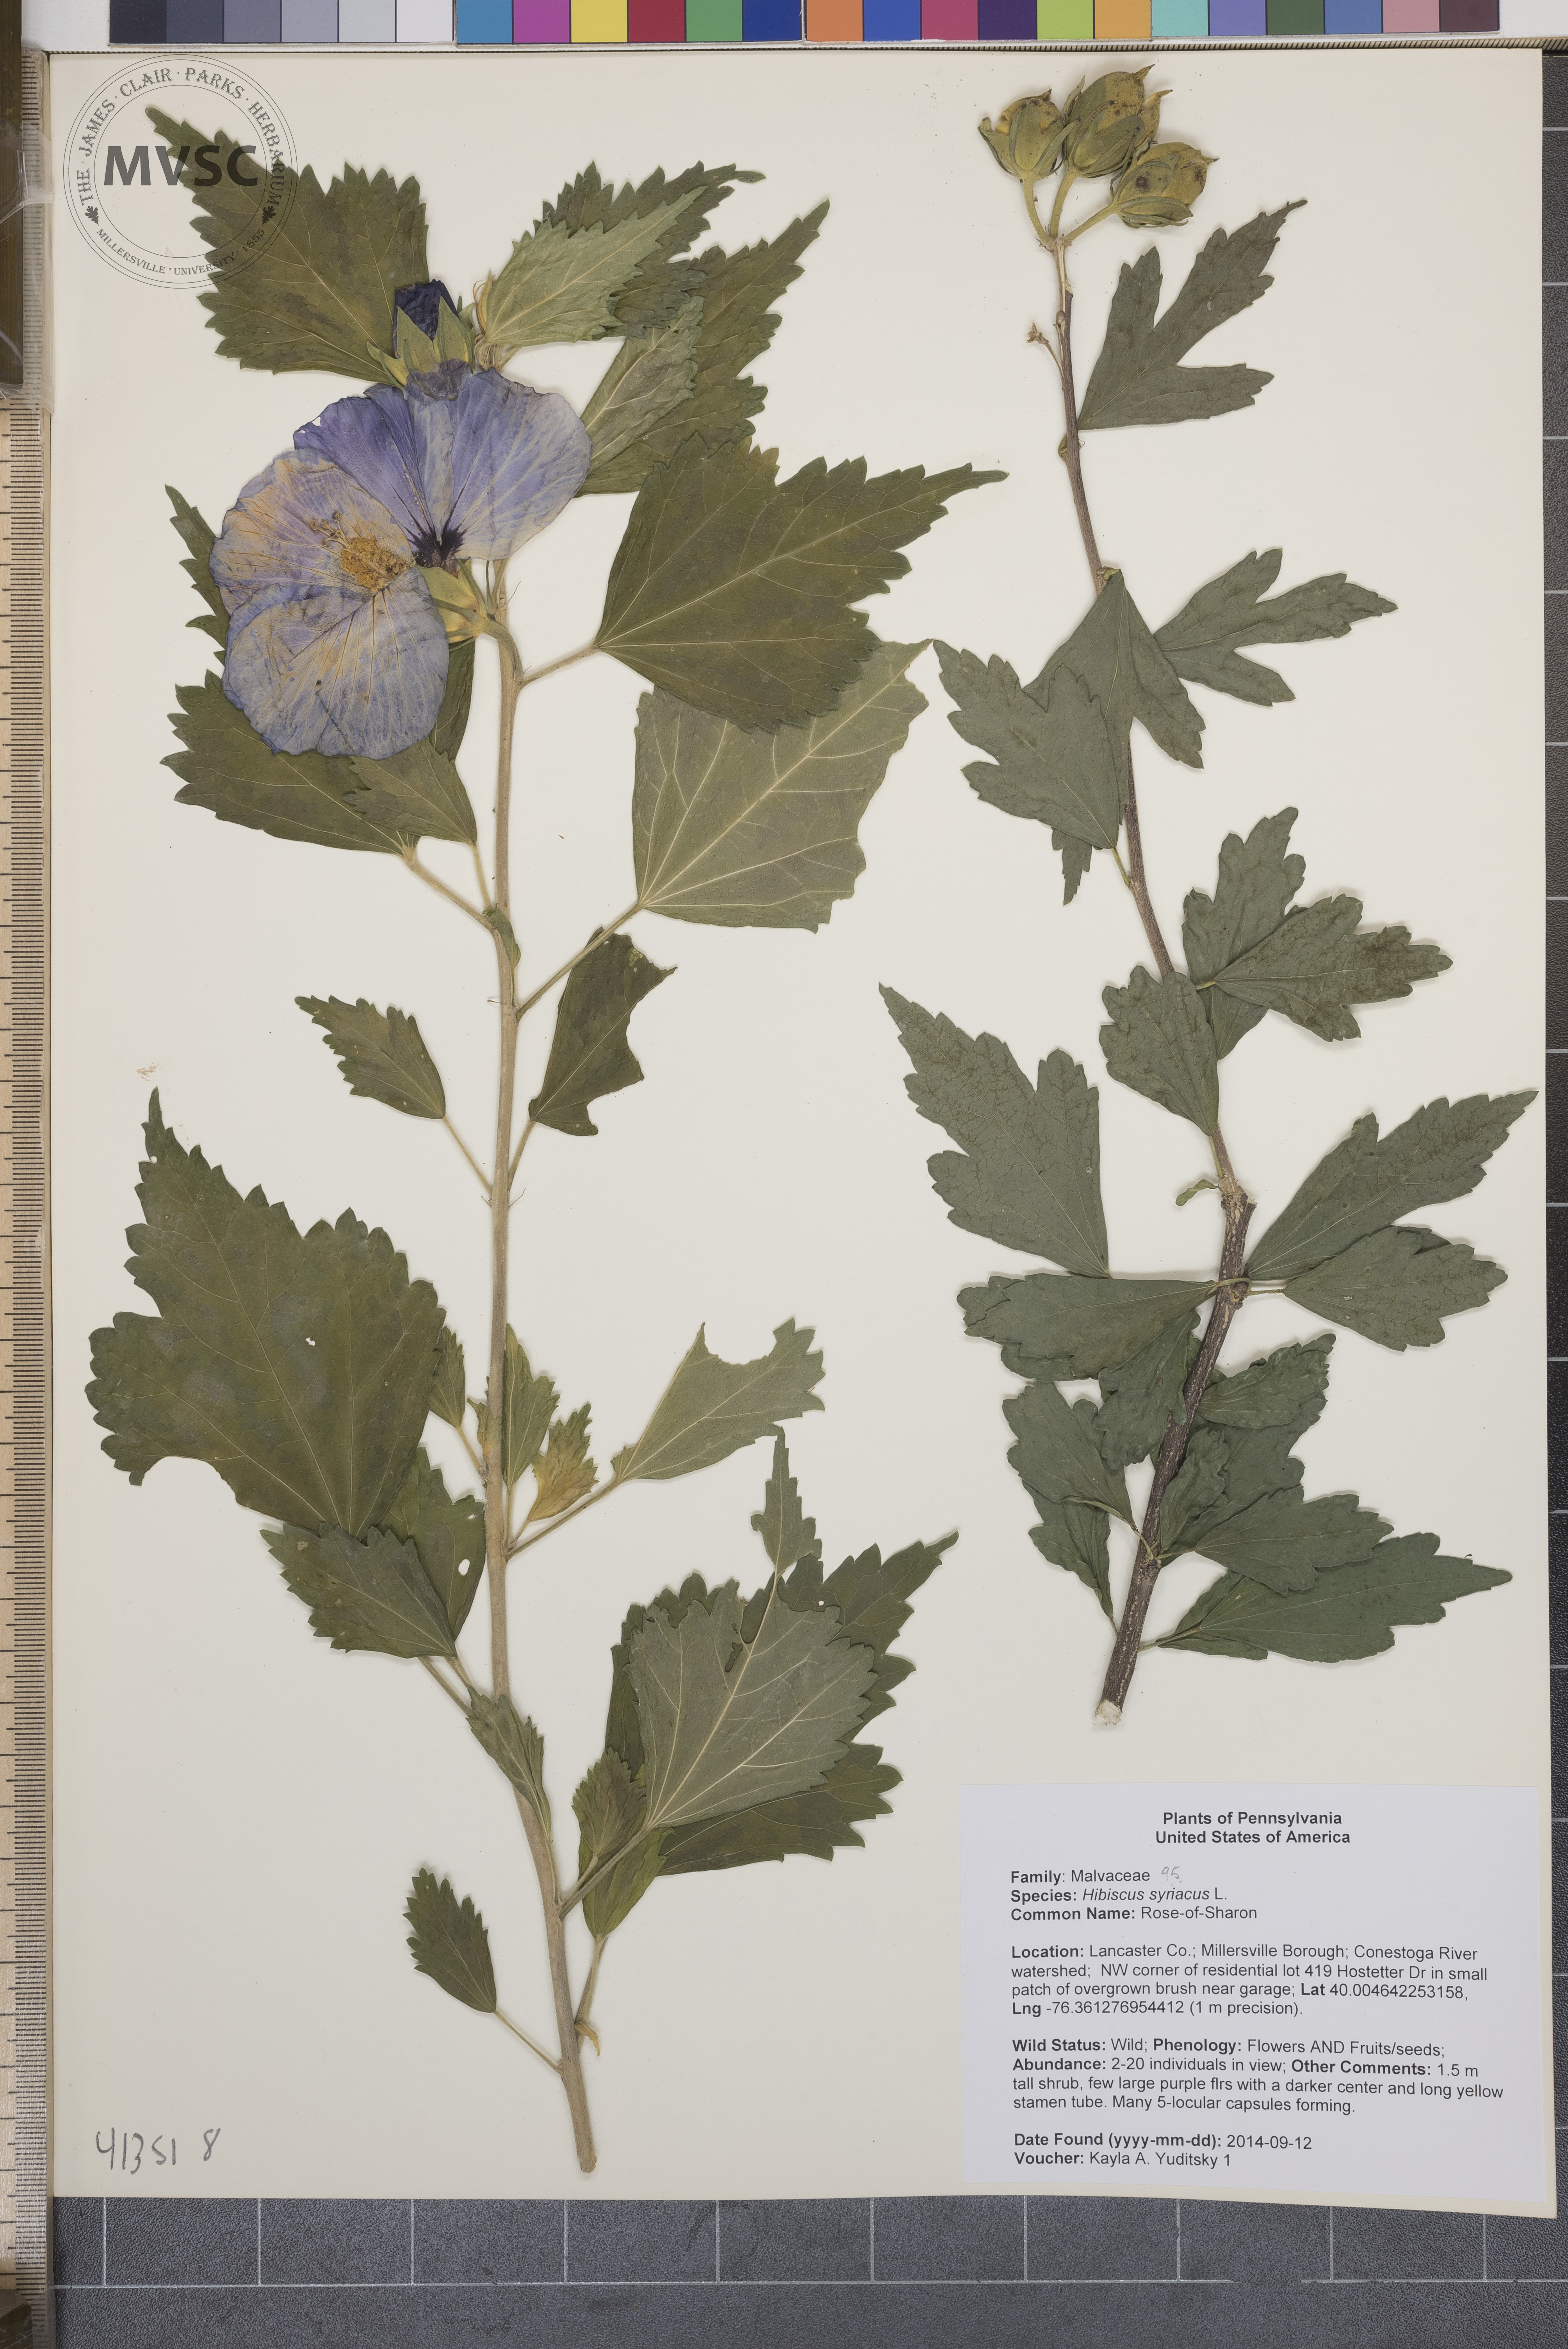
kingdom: Plantae
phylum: Tracheophyta
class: Magnoliopsida
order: Malvales
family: Malvaceae
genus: Hibiscus
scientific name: Hibiscus syriacus
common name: Rose-of-Sharon
